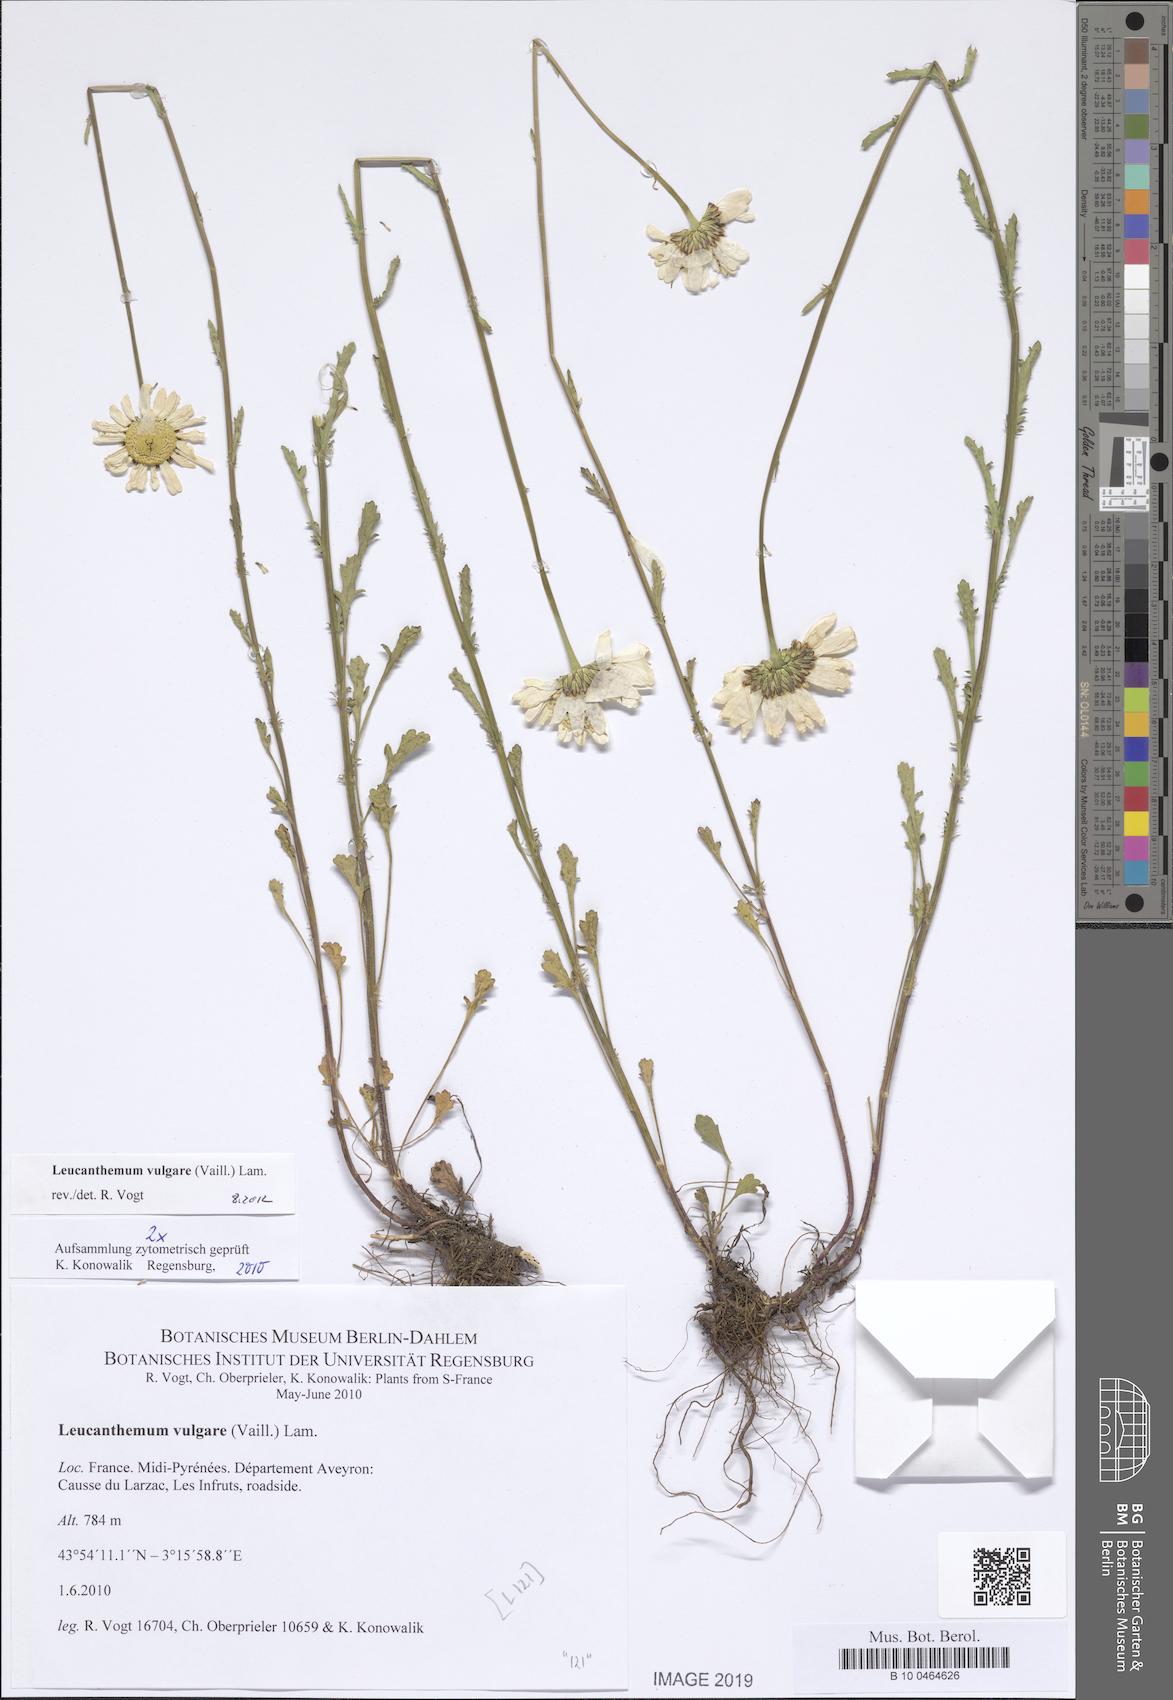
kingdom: Plantae
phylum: Tracheophyta
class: Magnoliopsida
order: Asterales
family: Asteraceae
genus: Leucanthemum
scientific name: Leucanthemum vulgare
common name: Oxeye daisy
